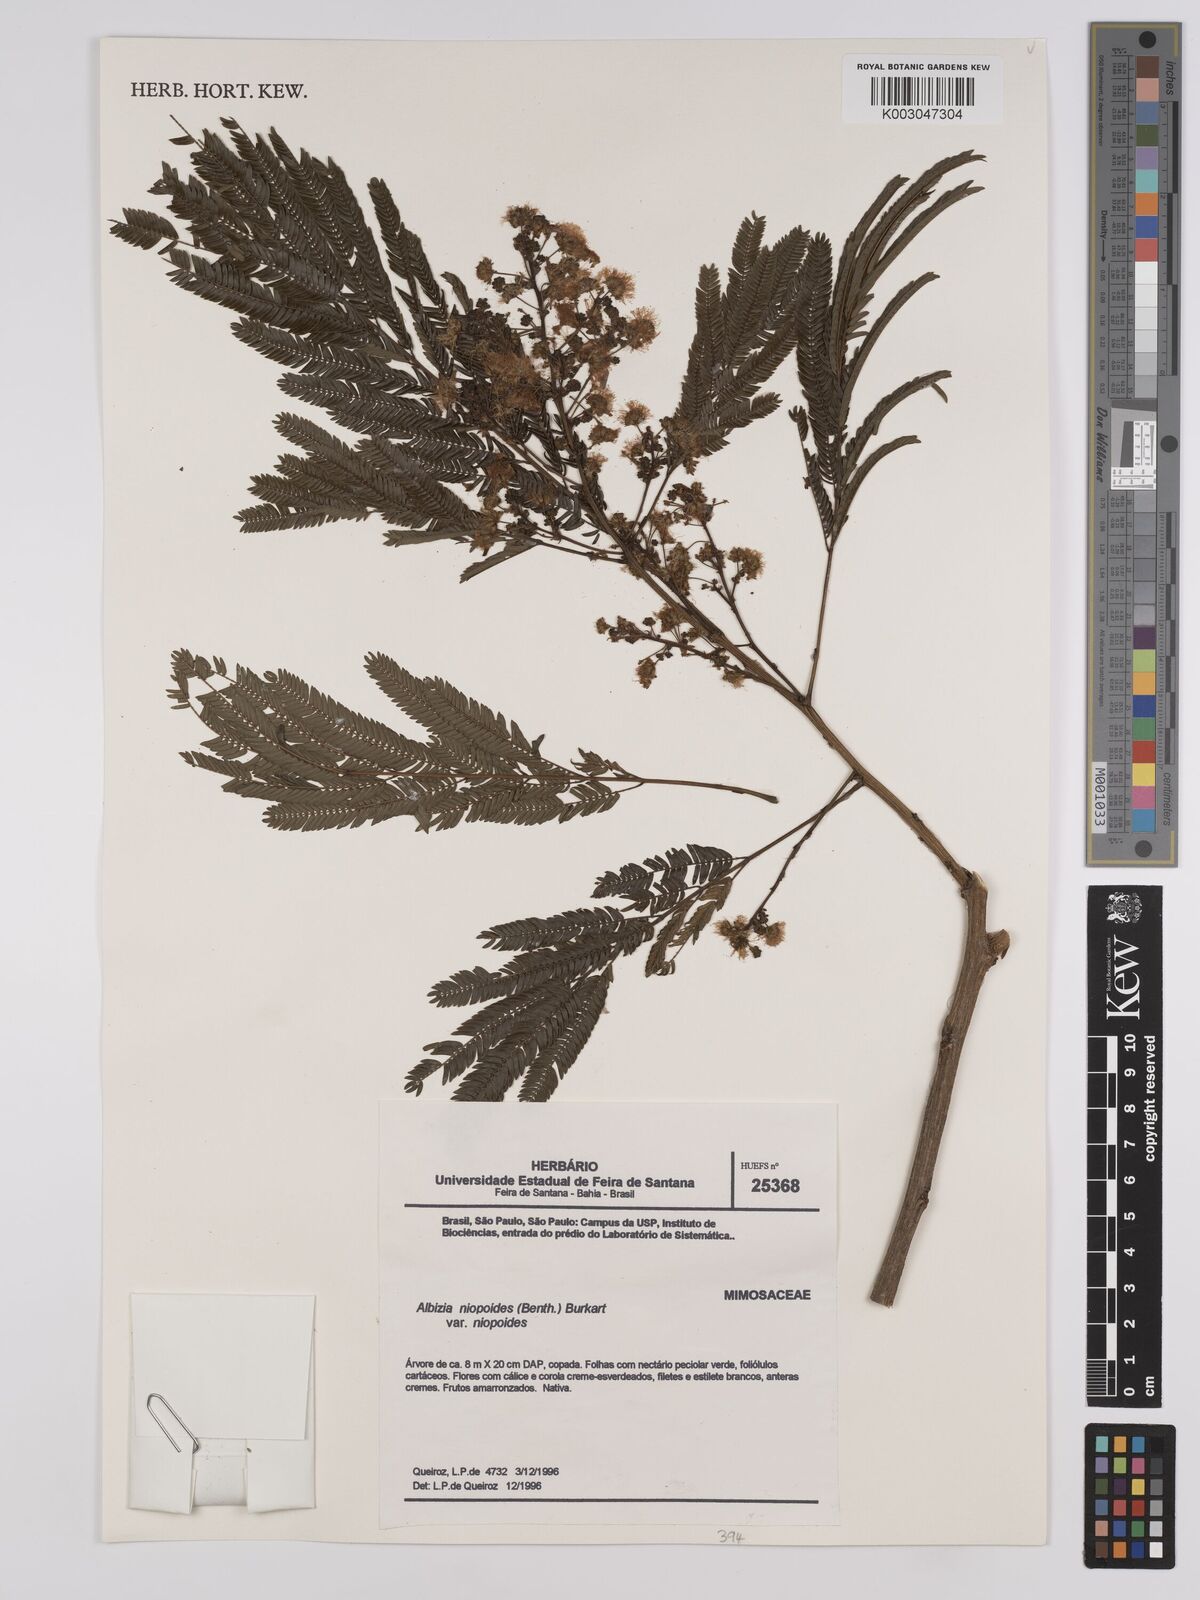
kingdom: Plantae
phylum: Tracheophyta
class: Magnoliopsida
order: Fabales
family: Fabaceae
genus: Albizia
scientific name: Albizia niopoides
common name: Silk tree
